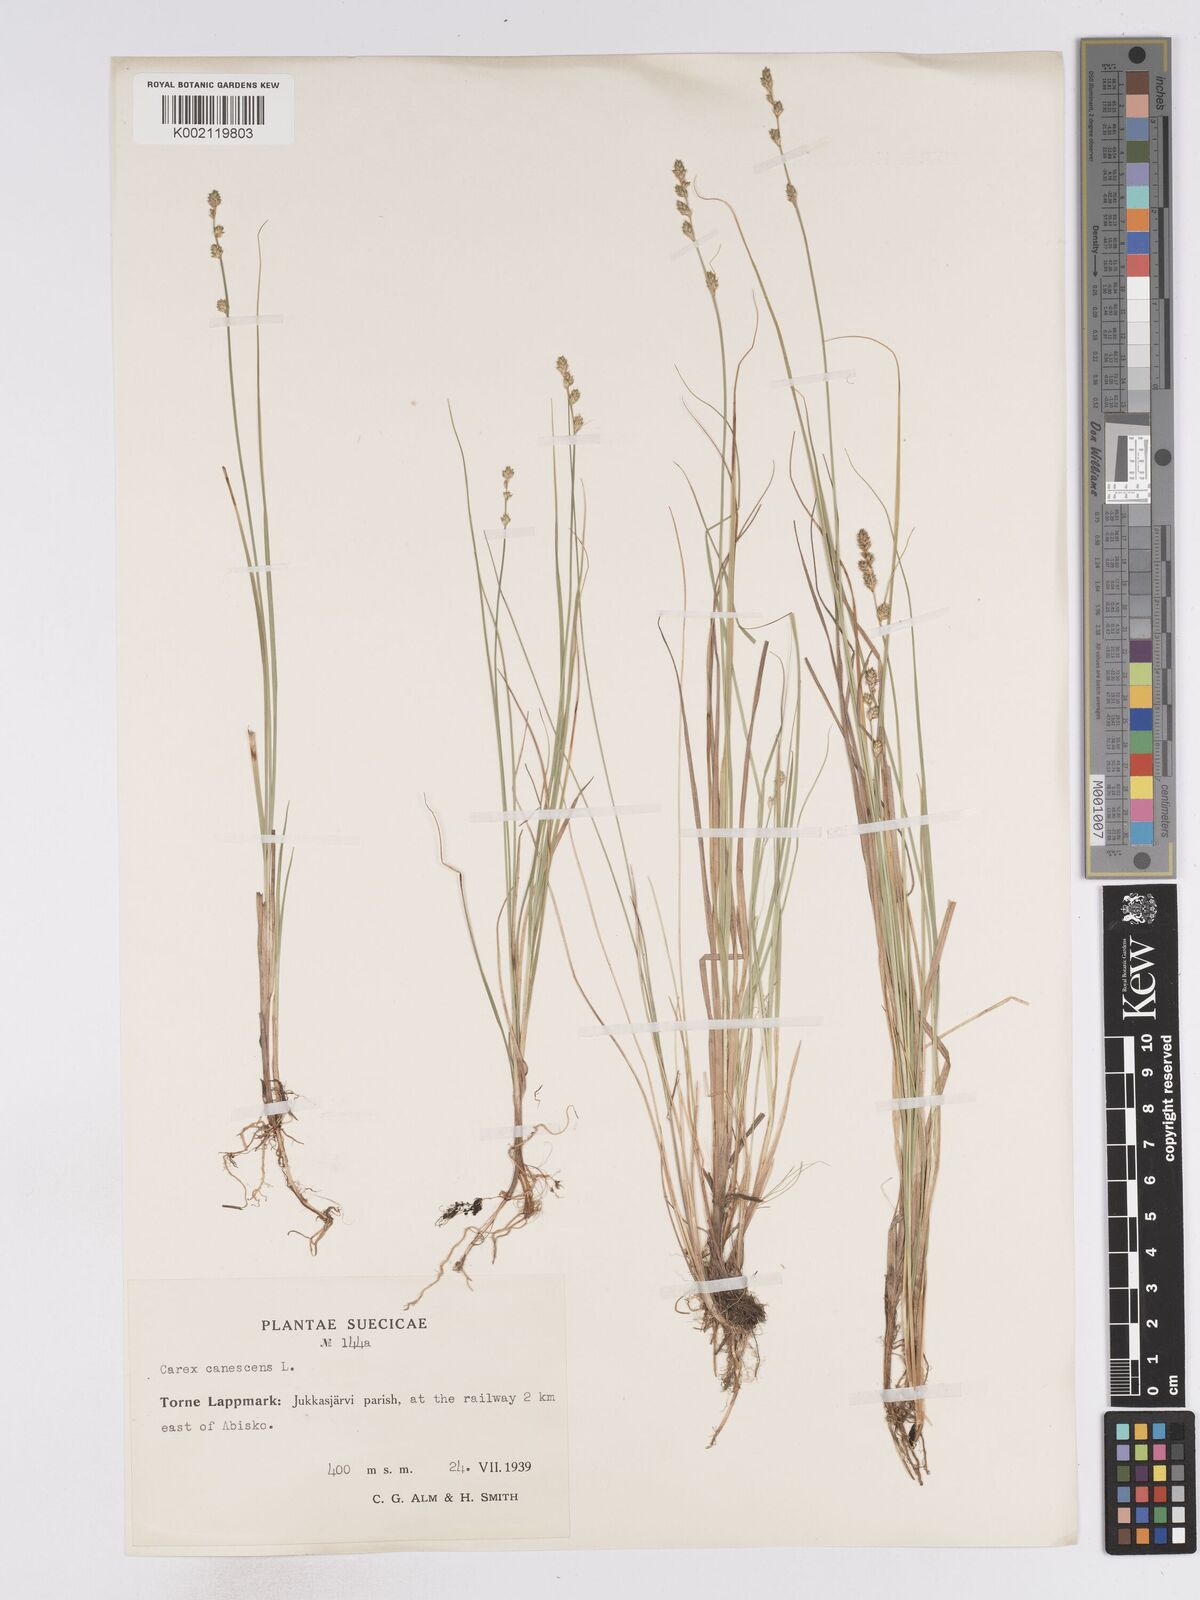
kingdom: Plantae
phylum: Tracheophyta
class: Liliopsida
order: Poales
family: Cyperaceae
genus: Carex
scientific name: Carex curta
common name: White sedge
